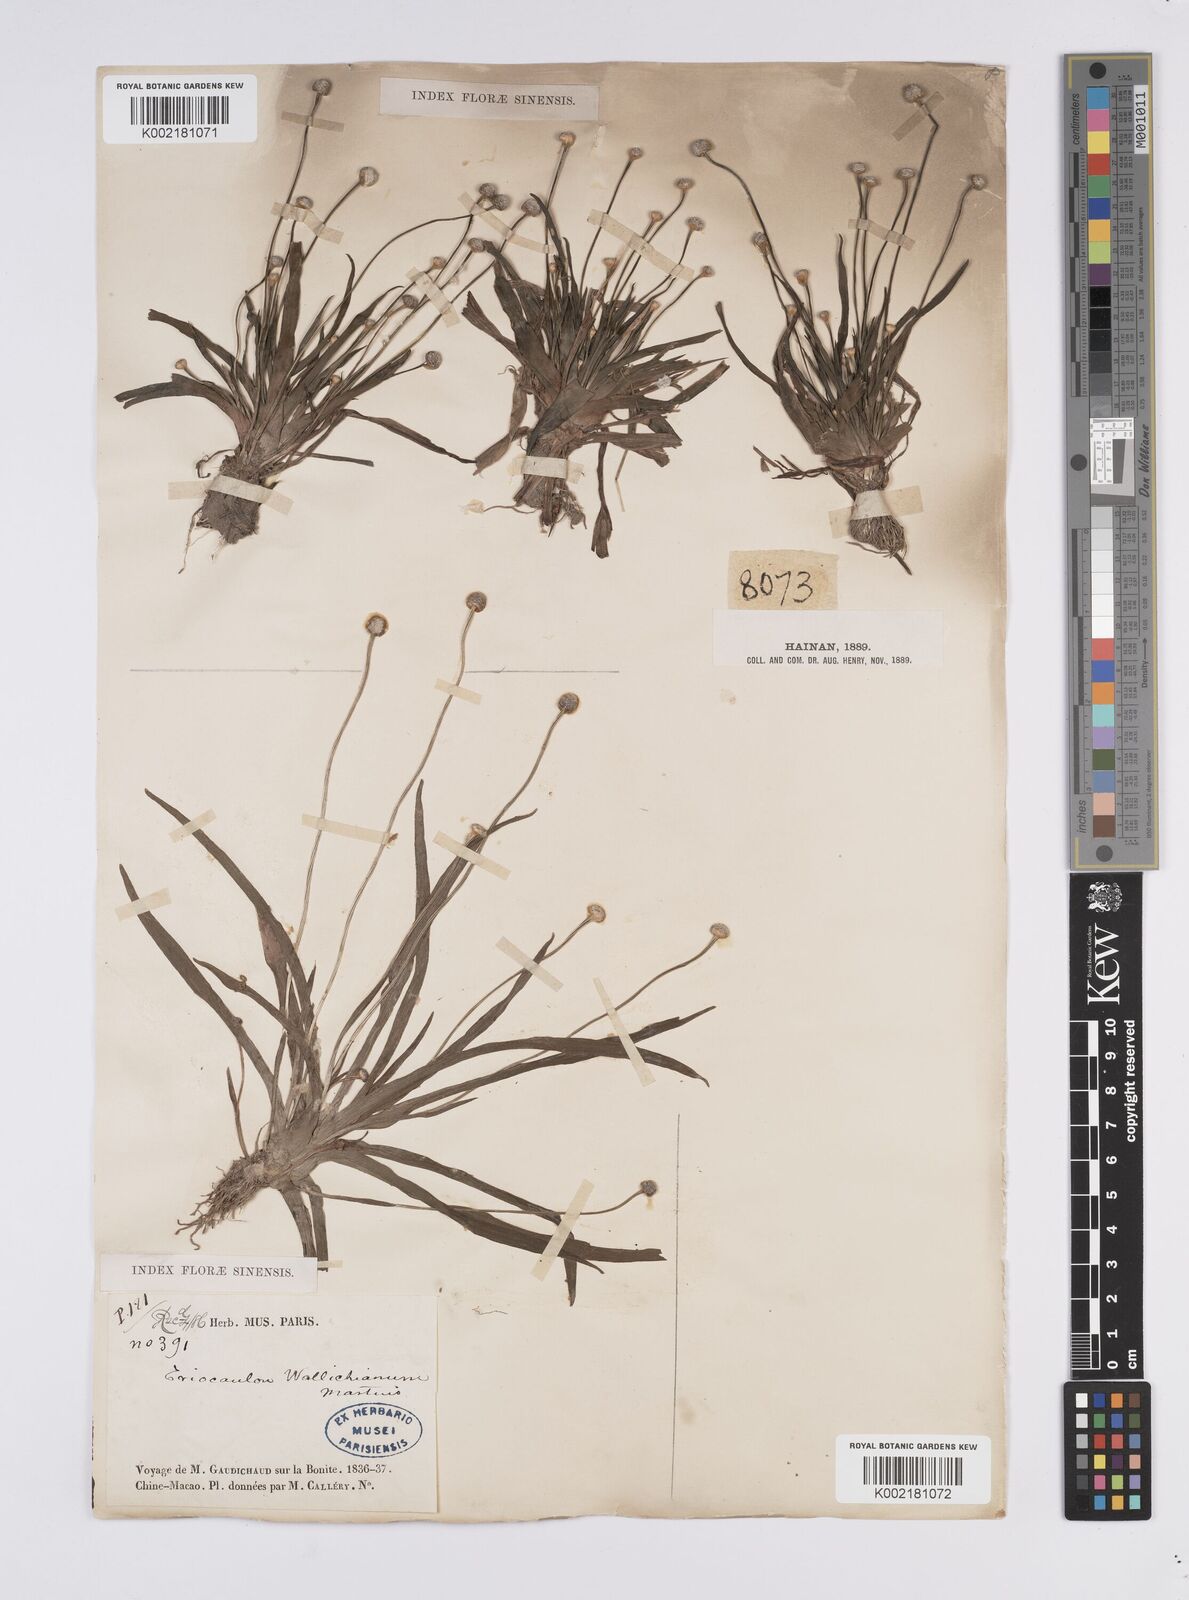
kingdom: Plantae
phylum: Tracheophyta
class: Liliopsida
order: Poales
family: Eriocaulaceae
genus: Eriocaulon
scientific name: Eriocaulon sexangulare
